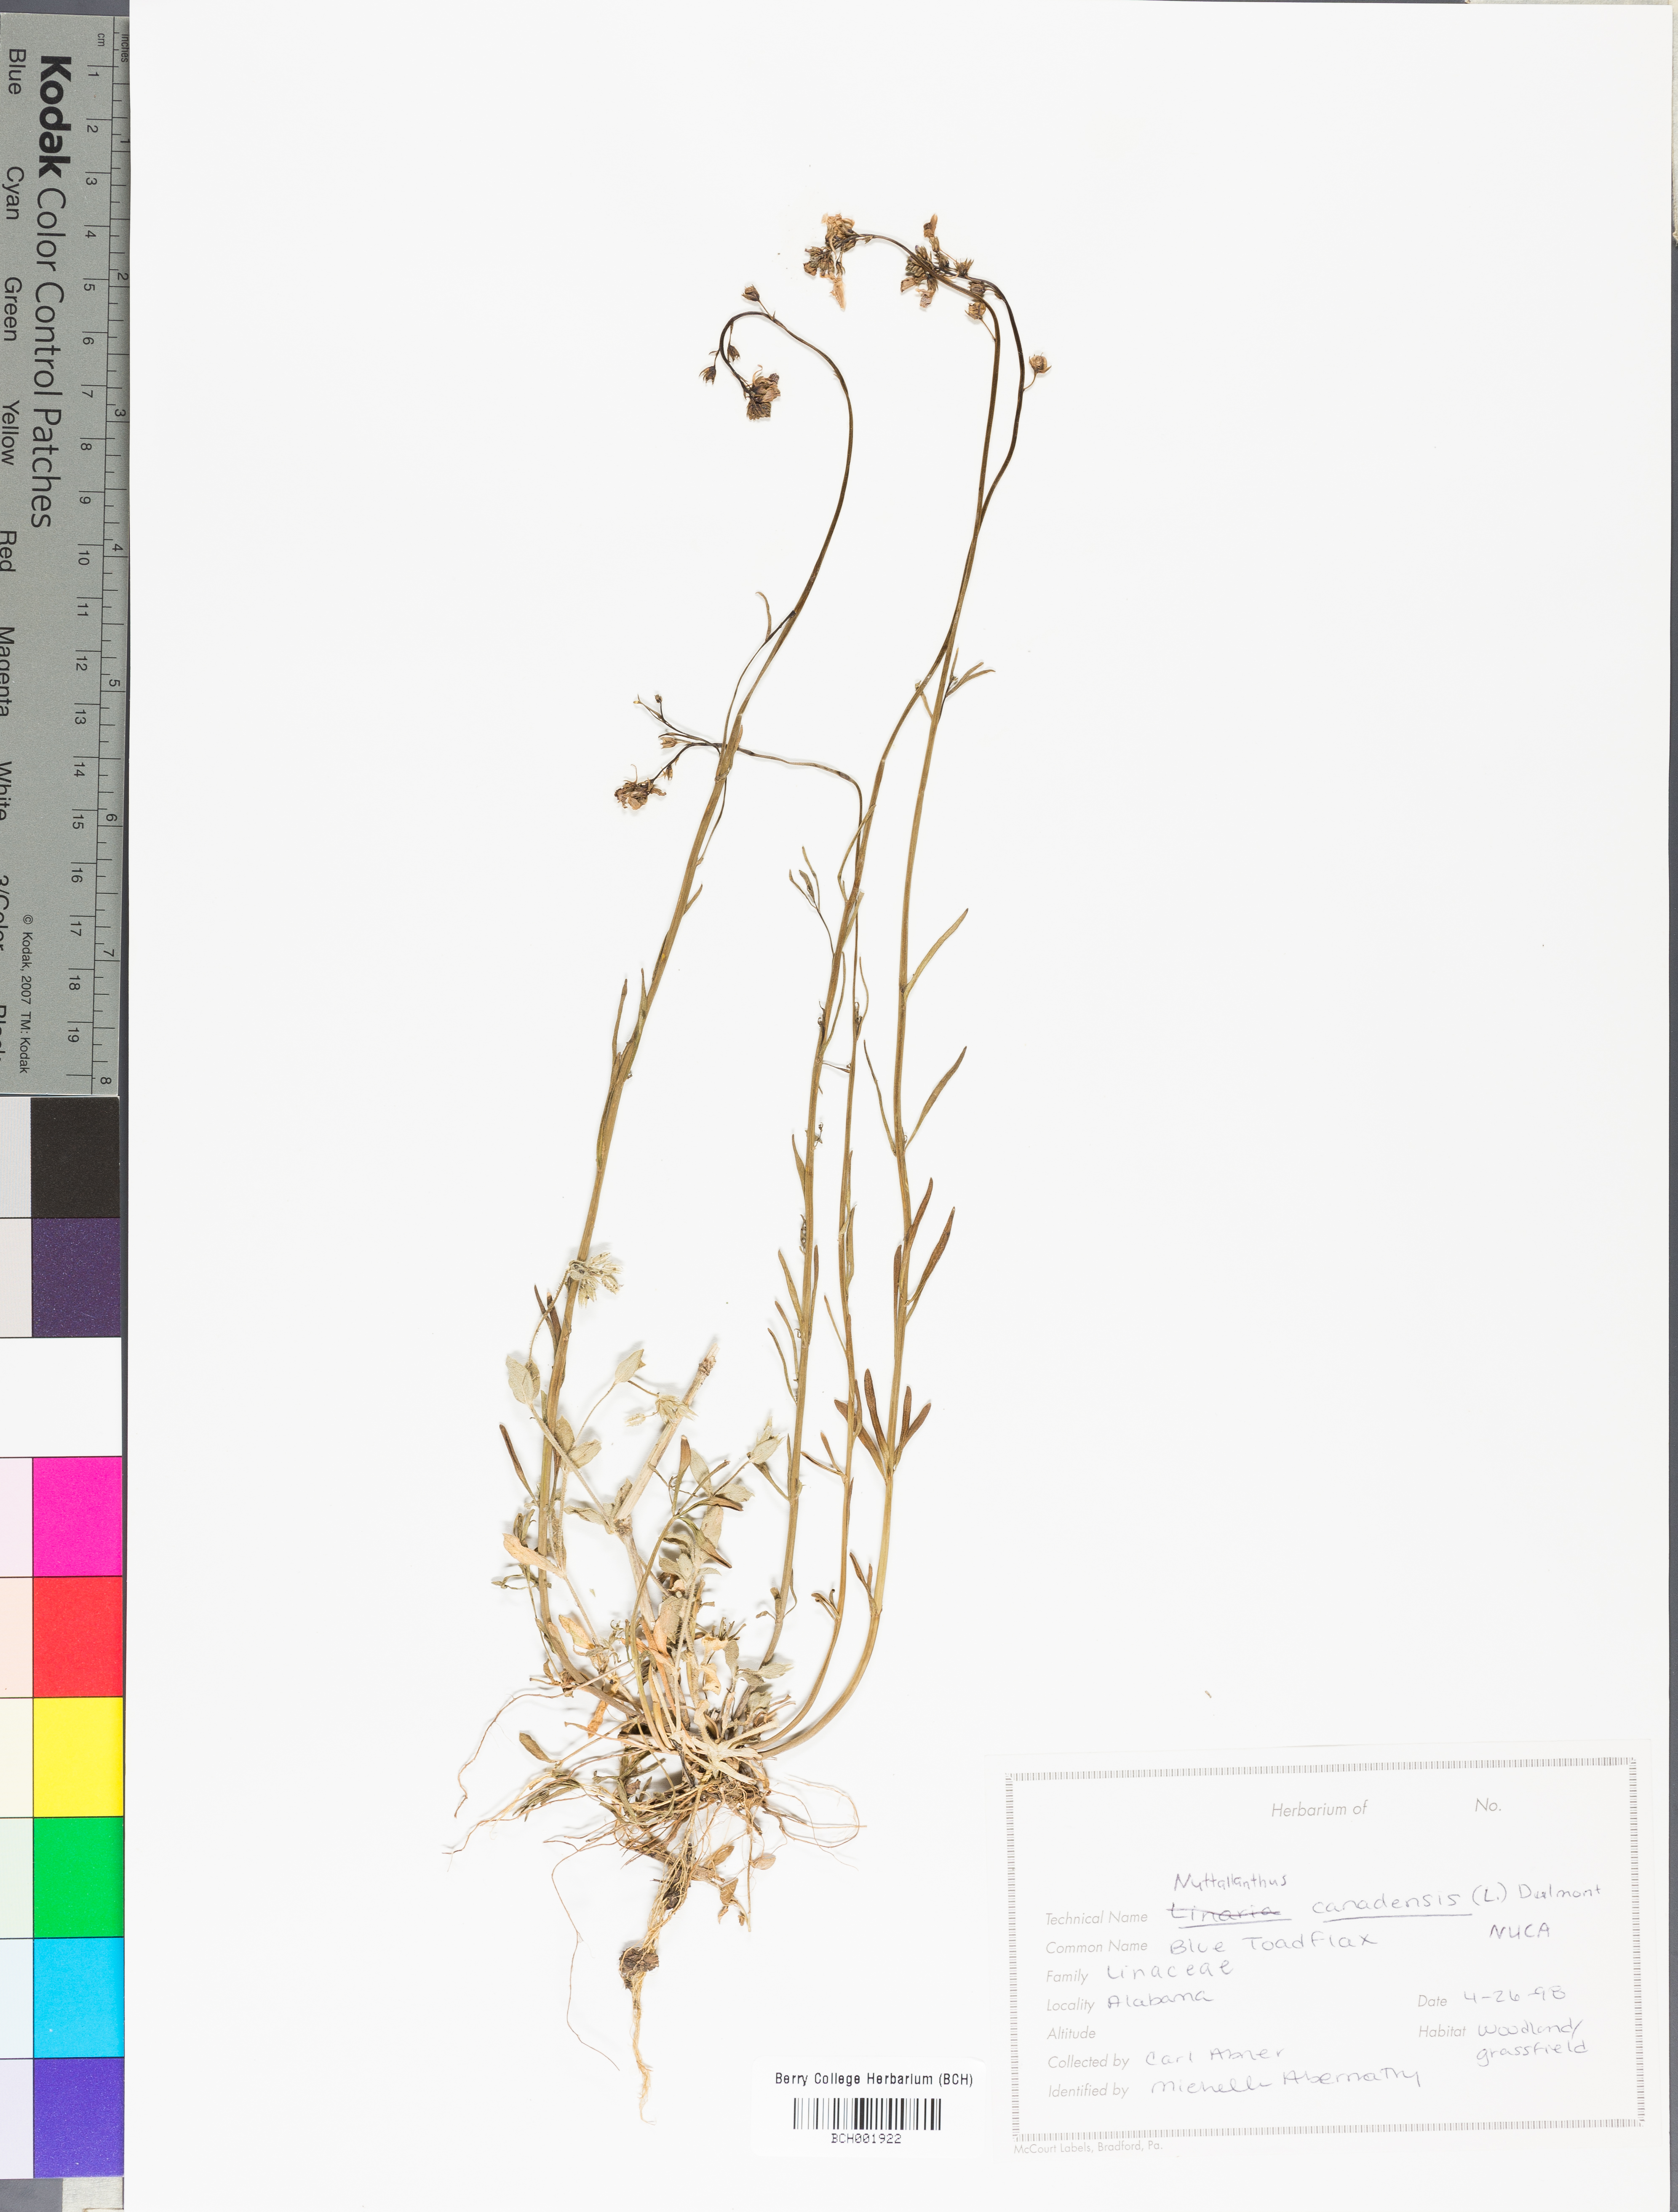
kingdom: Plantae
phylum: Tracheophyta
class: Magnoliopsida
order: Lamiales
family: Plantaginaceae
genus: Nuttallanthus
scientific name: Nuttallanthus canadensis
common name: Blue toadflax
